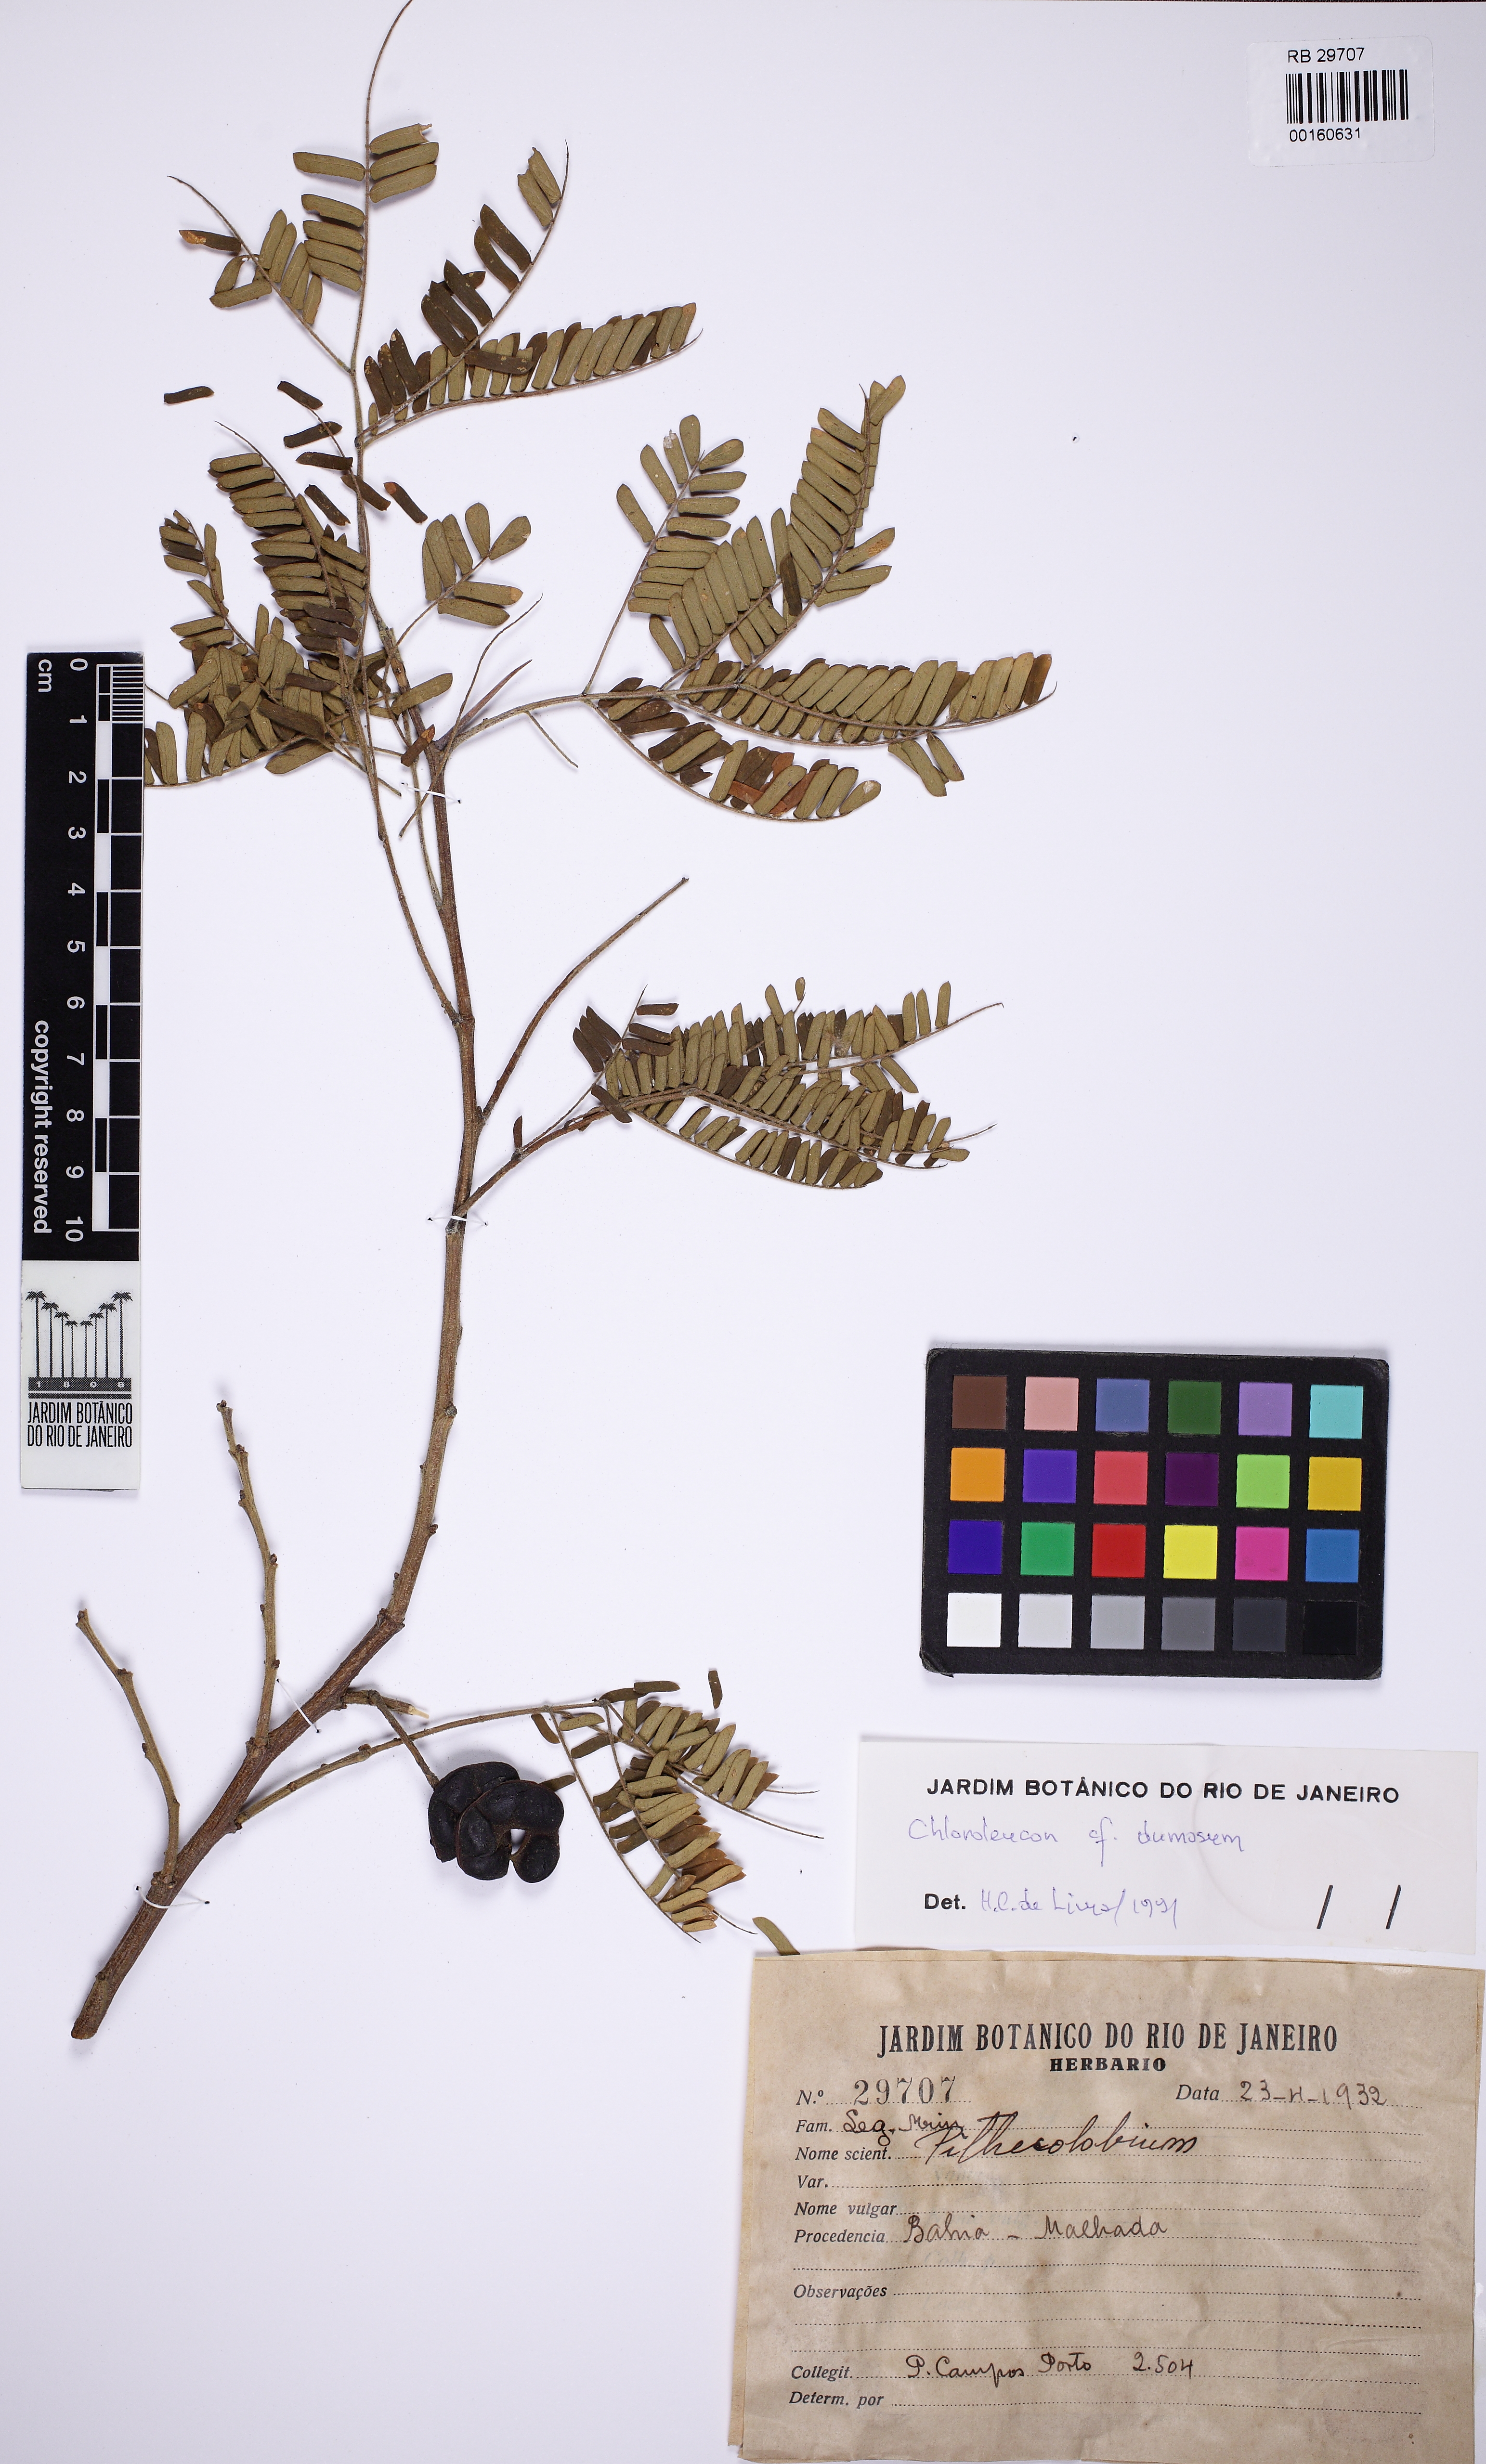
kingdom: Plantae
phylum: Tracheophyta
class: Magnoliopsida
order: Fabales
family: Fabaceae
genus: Chloroleucon
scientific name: Chloroleucon dumosum
